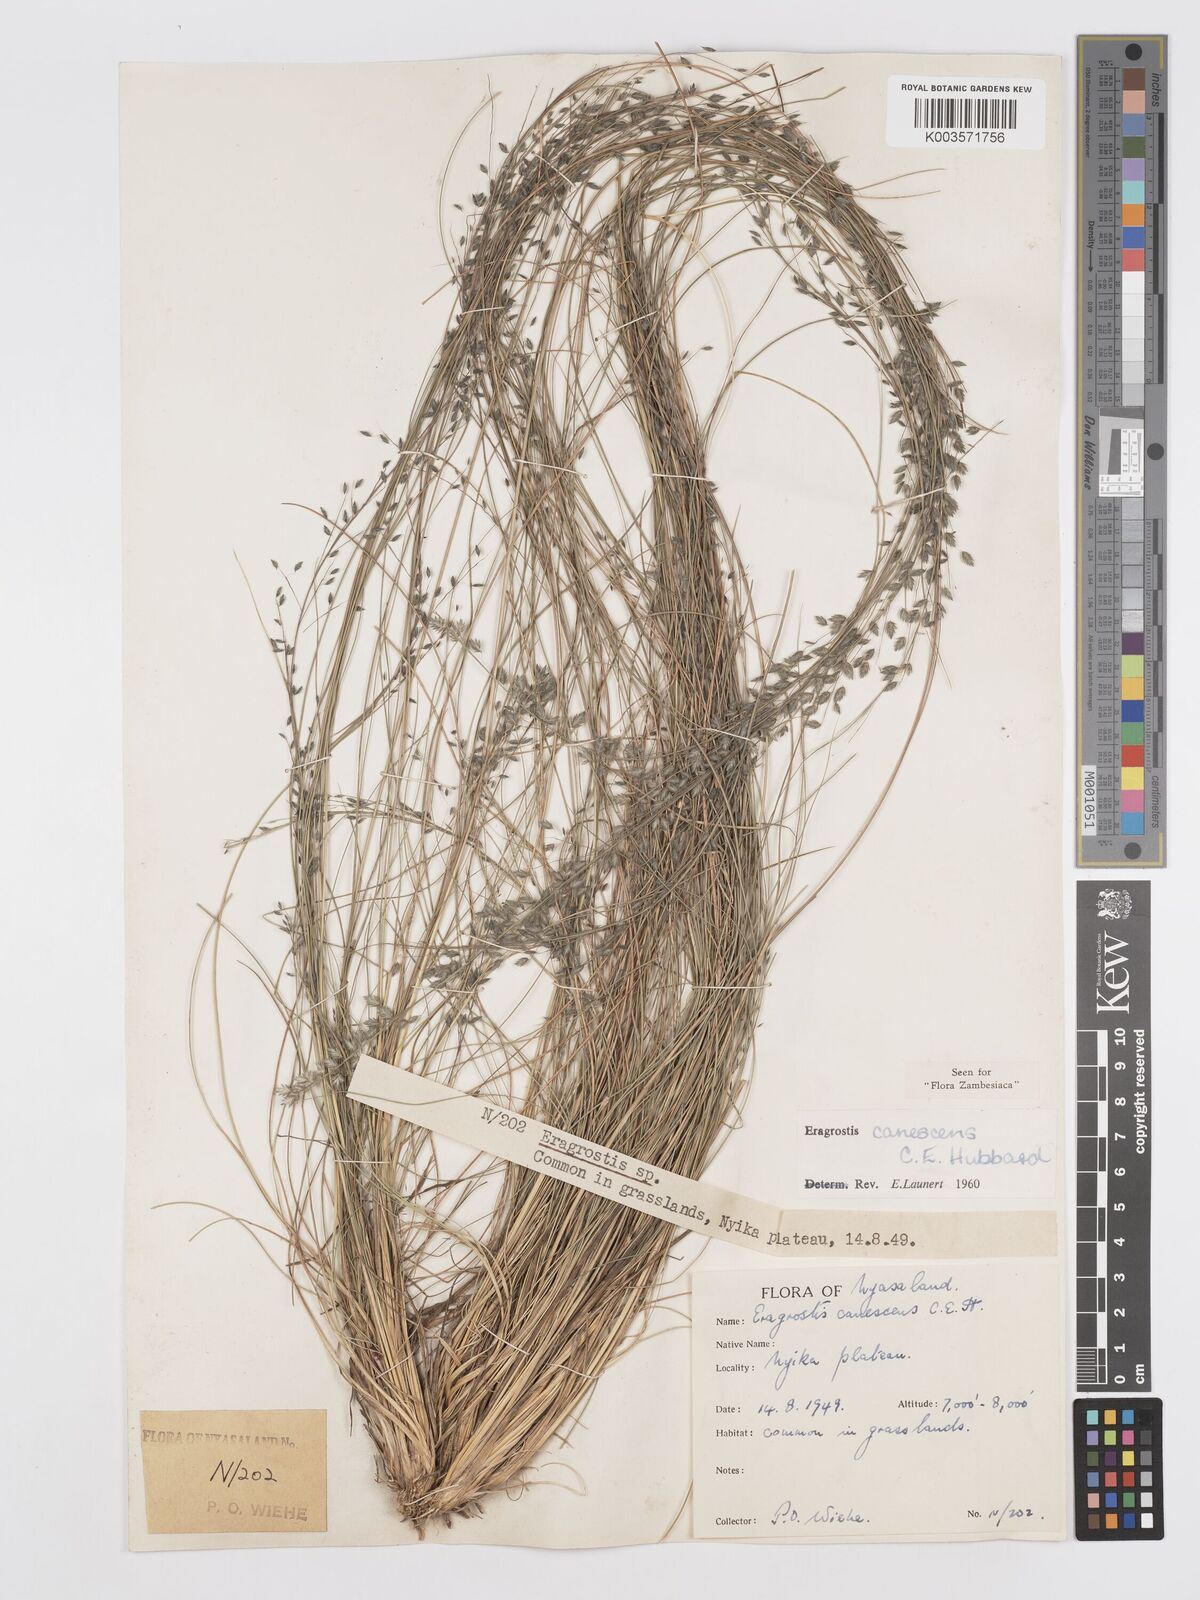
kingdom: Plantae
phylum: Tracheophyta
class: Liliopsida
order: Poales
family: Poaceae
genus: Eragrostis
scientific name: Eragrostis canescens
